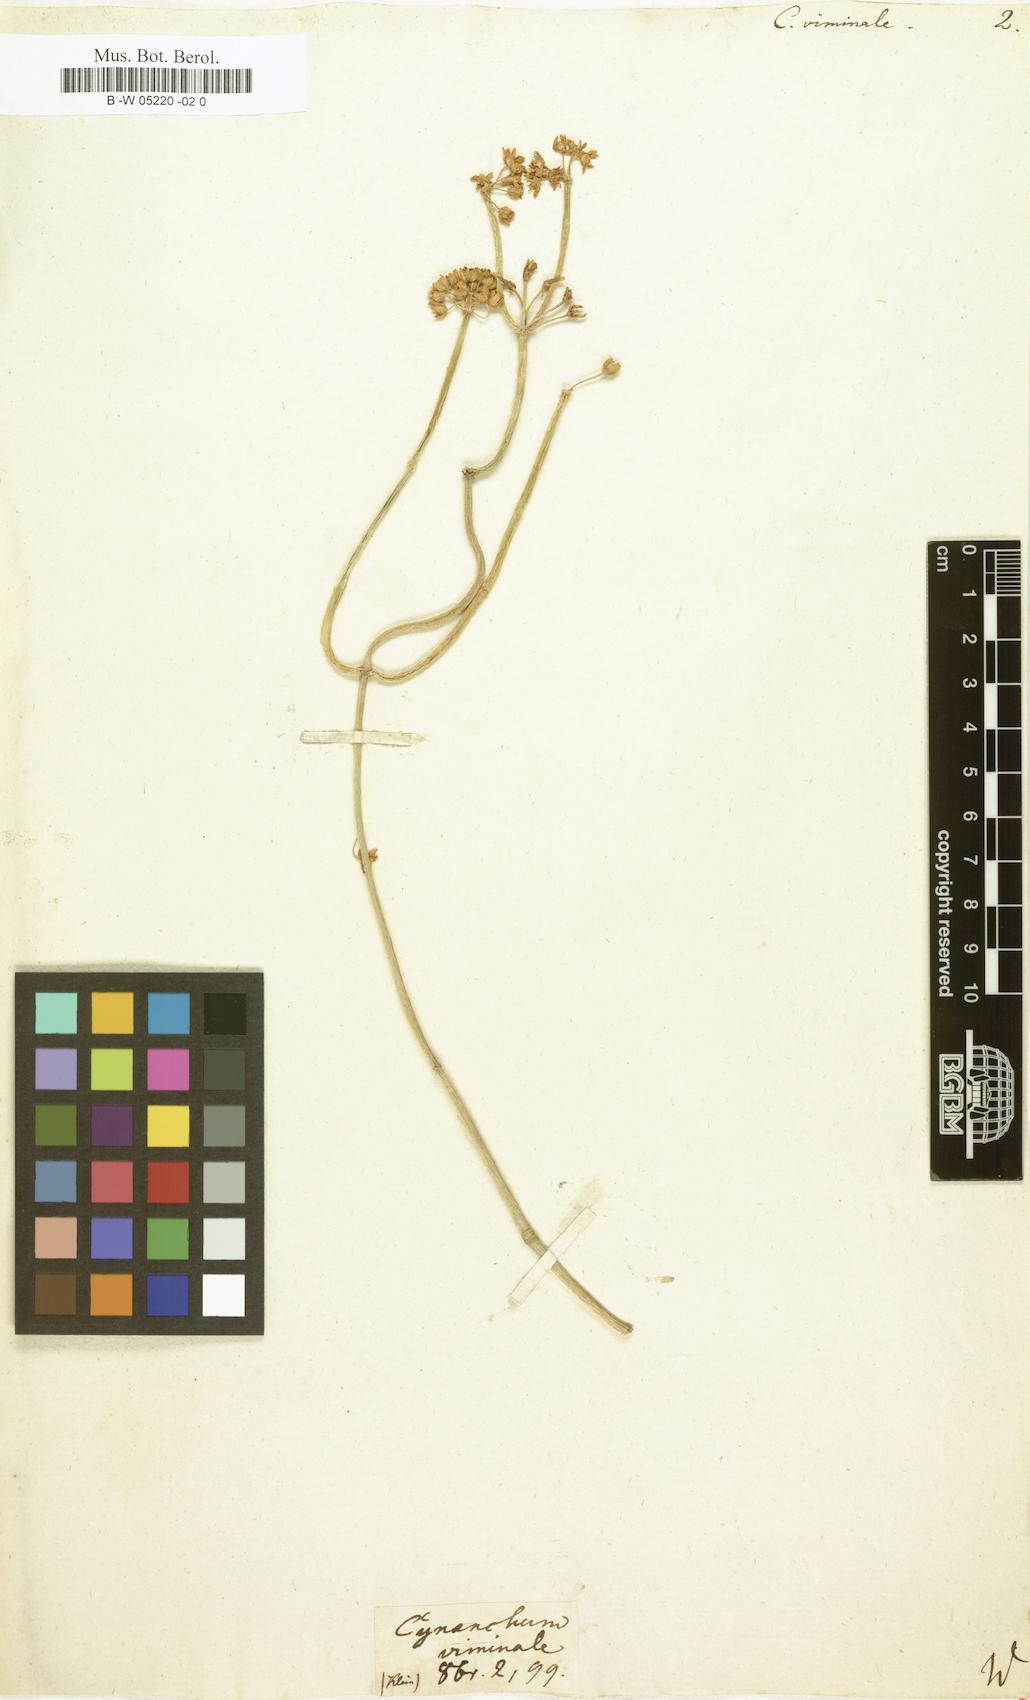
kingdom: Plantae
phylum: Tracheophyta
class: Magnoliopsida
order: Gentianales
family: Apocynaceae
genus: Cynanchum
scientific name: Cynanchum viminale
